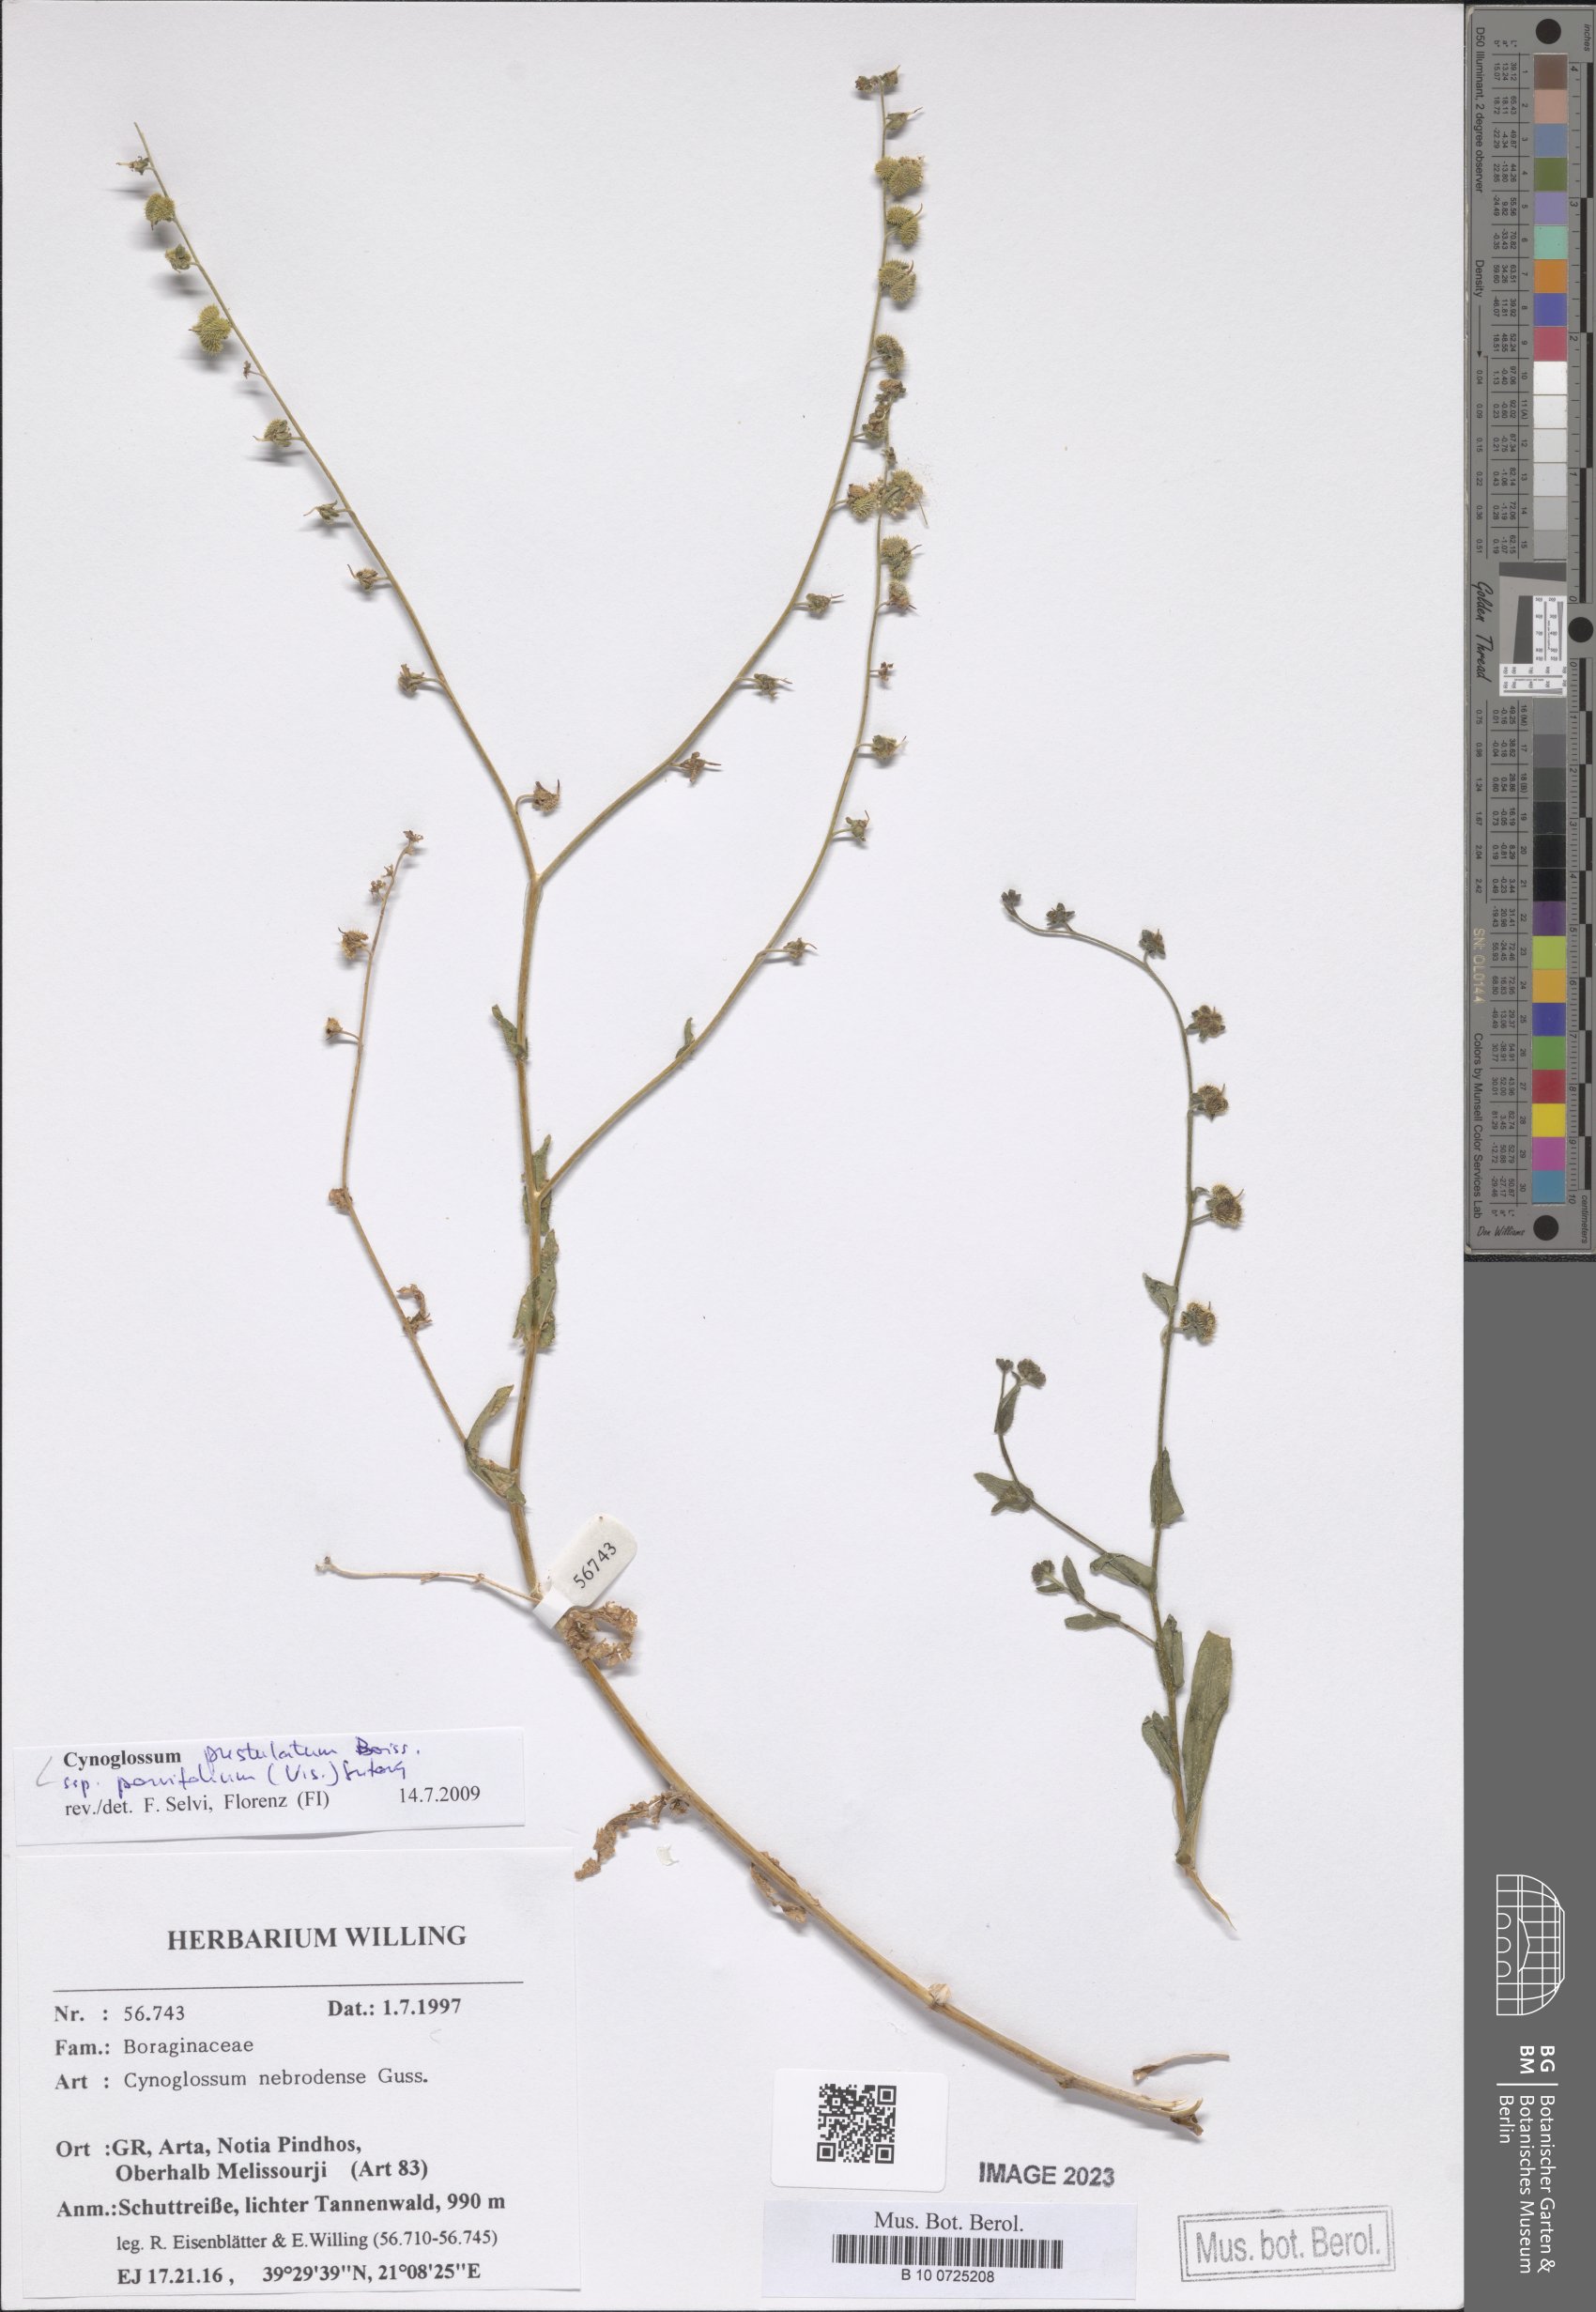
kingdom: Plantae
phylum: Tracheophyta
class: Magnoliopsida
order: Boraginales
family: Boraginaceae
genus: Cynoglossum
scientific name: Cynoglossum pustulatum
